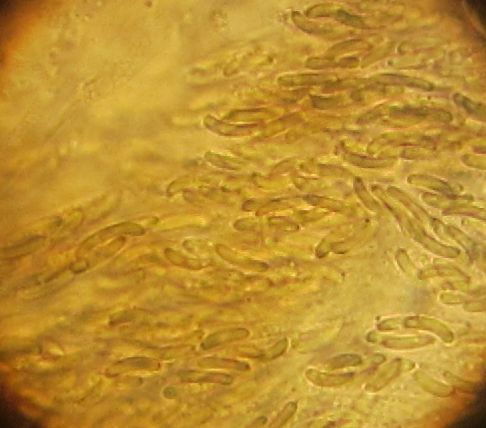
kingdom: Fungi
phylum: Ascomycota
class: Sordariomycetes
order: Xylariales
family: Diatrypaceae
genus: Diatrype
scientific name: Diatrype stigma
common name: udbredt kulskorpe
